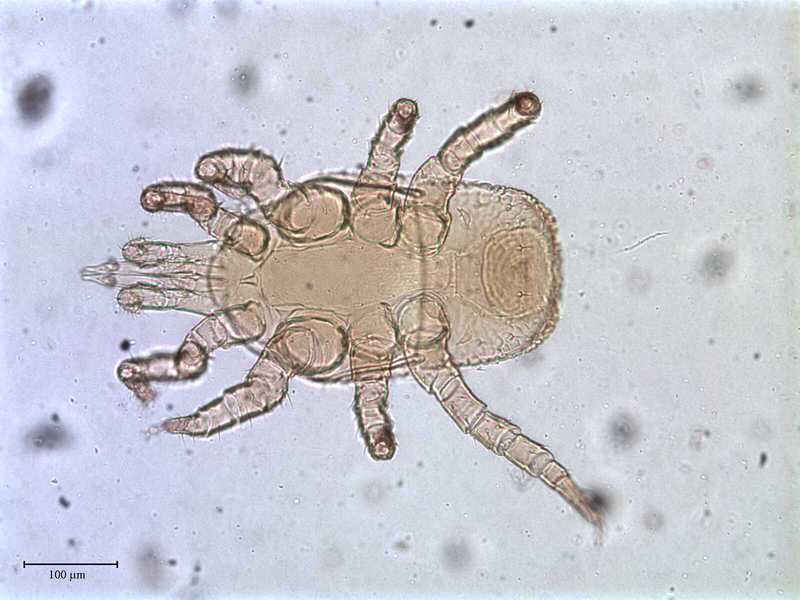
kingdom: Animalia
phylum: Arthropoda
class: Arachnida
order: Mesostigmata
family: Ologamasidae
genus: Gamasellus
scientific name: Gamasellus
